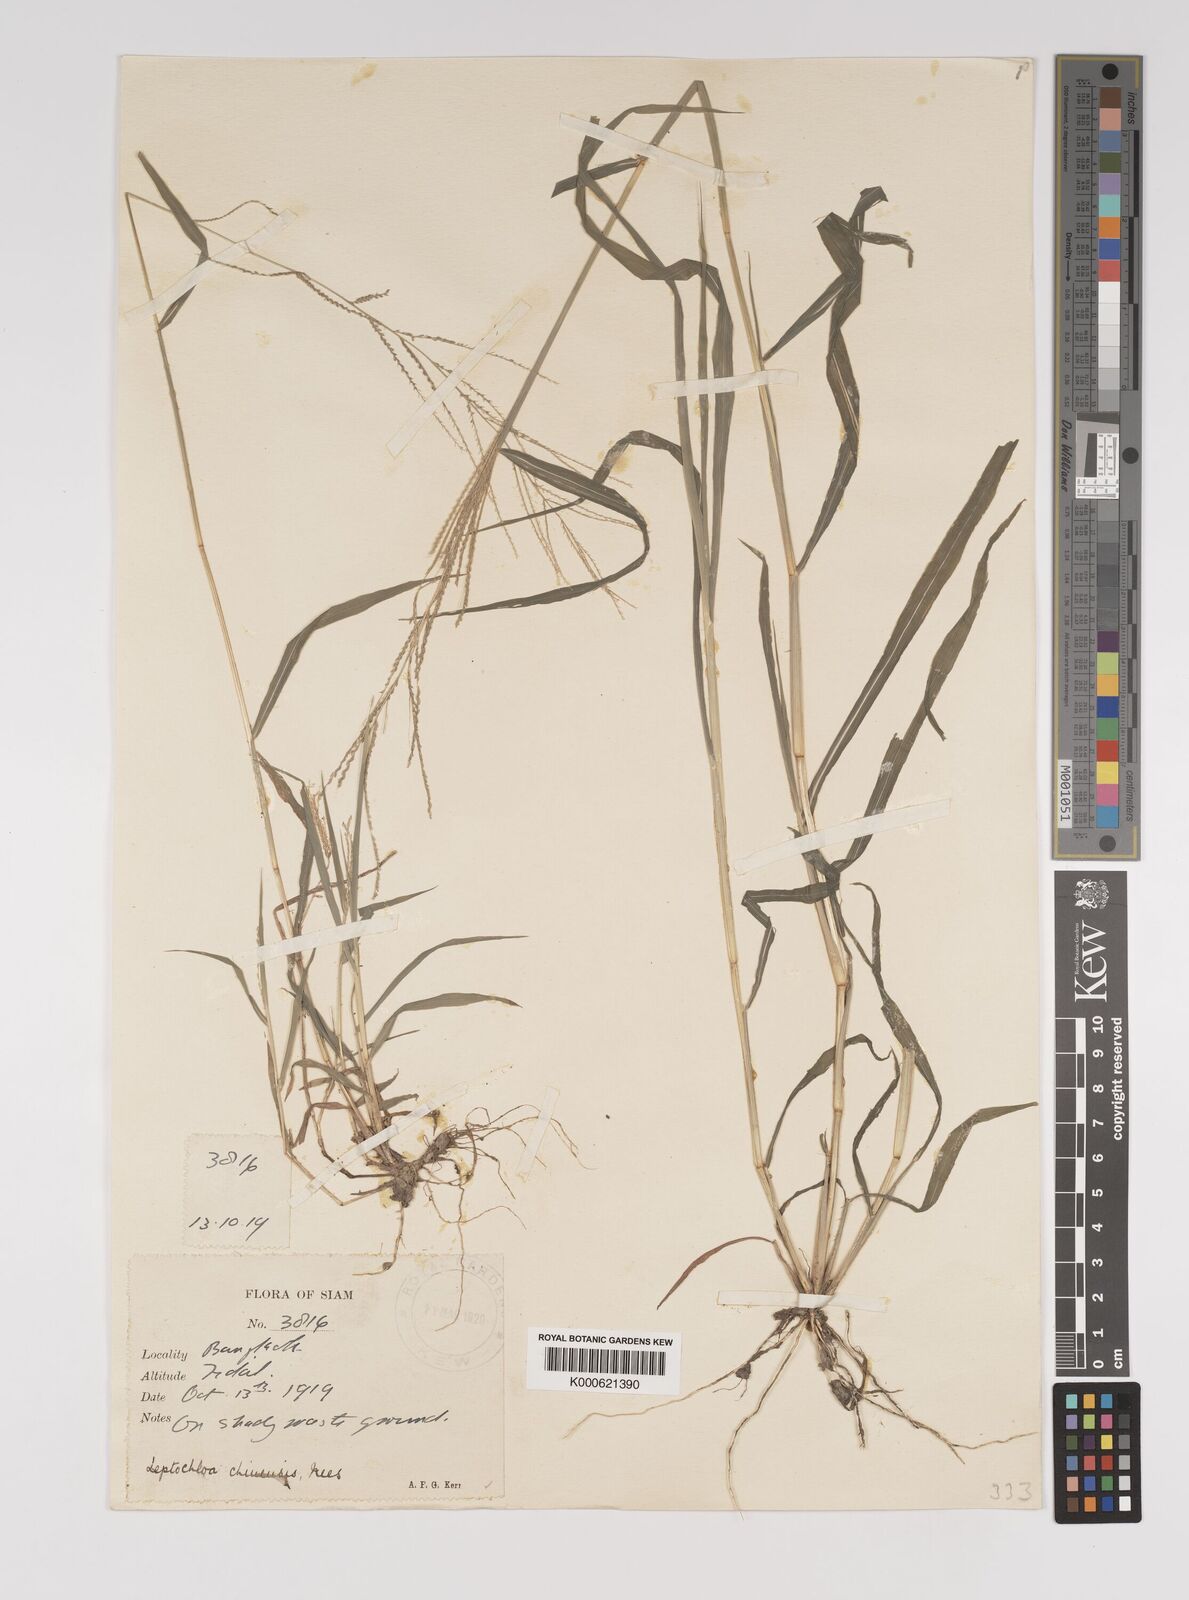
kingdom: Plantae
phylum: Tracheophyta
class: Liliopsida
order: Poales
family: Poaceae
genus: Leptochloa
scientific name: Leptochloa panicea
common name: Mucronate sprangletop
